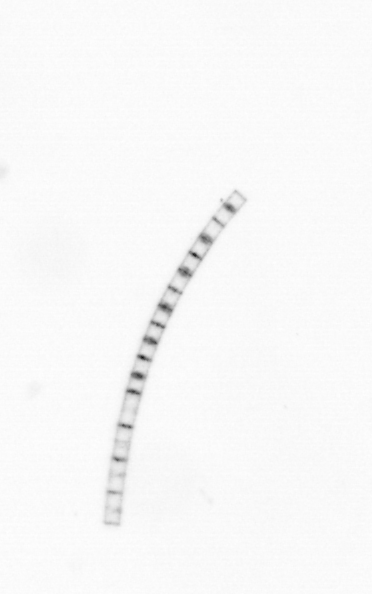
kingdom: Chromista
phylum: Ochrophyta
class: Bacillariophyceae
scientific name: Bacillariophyceae
